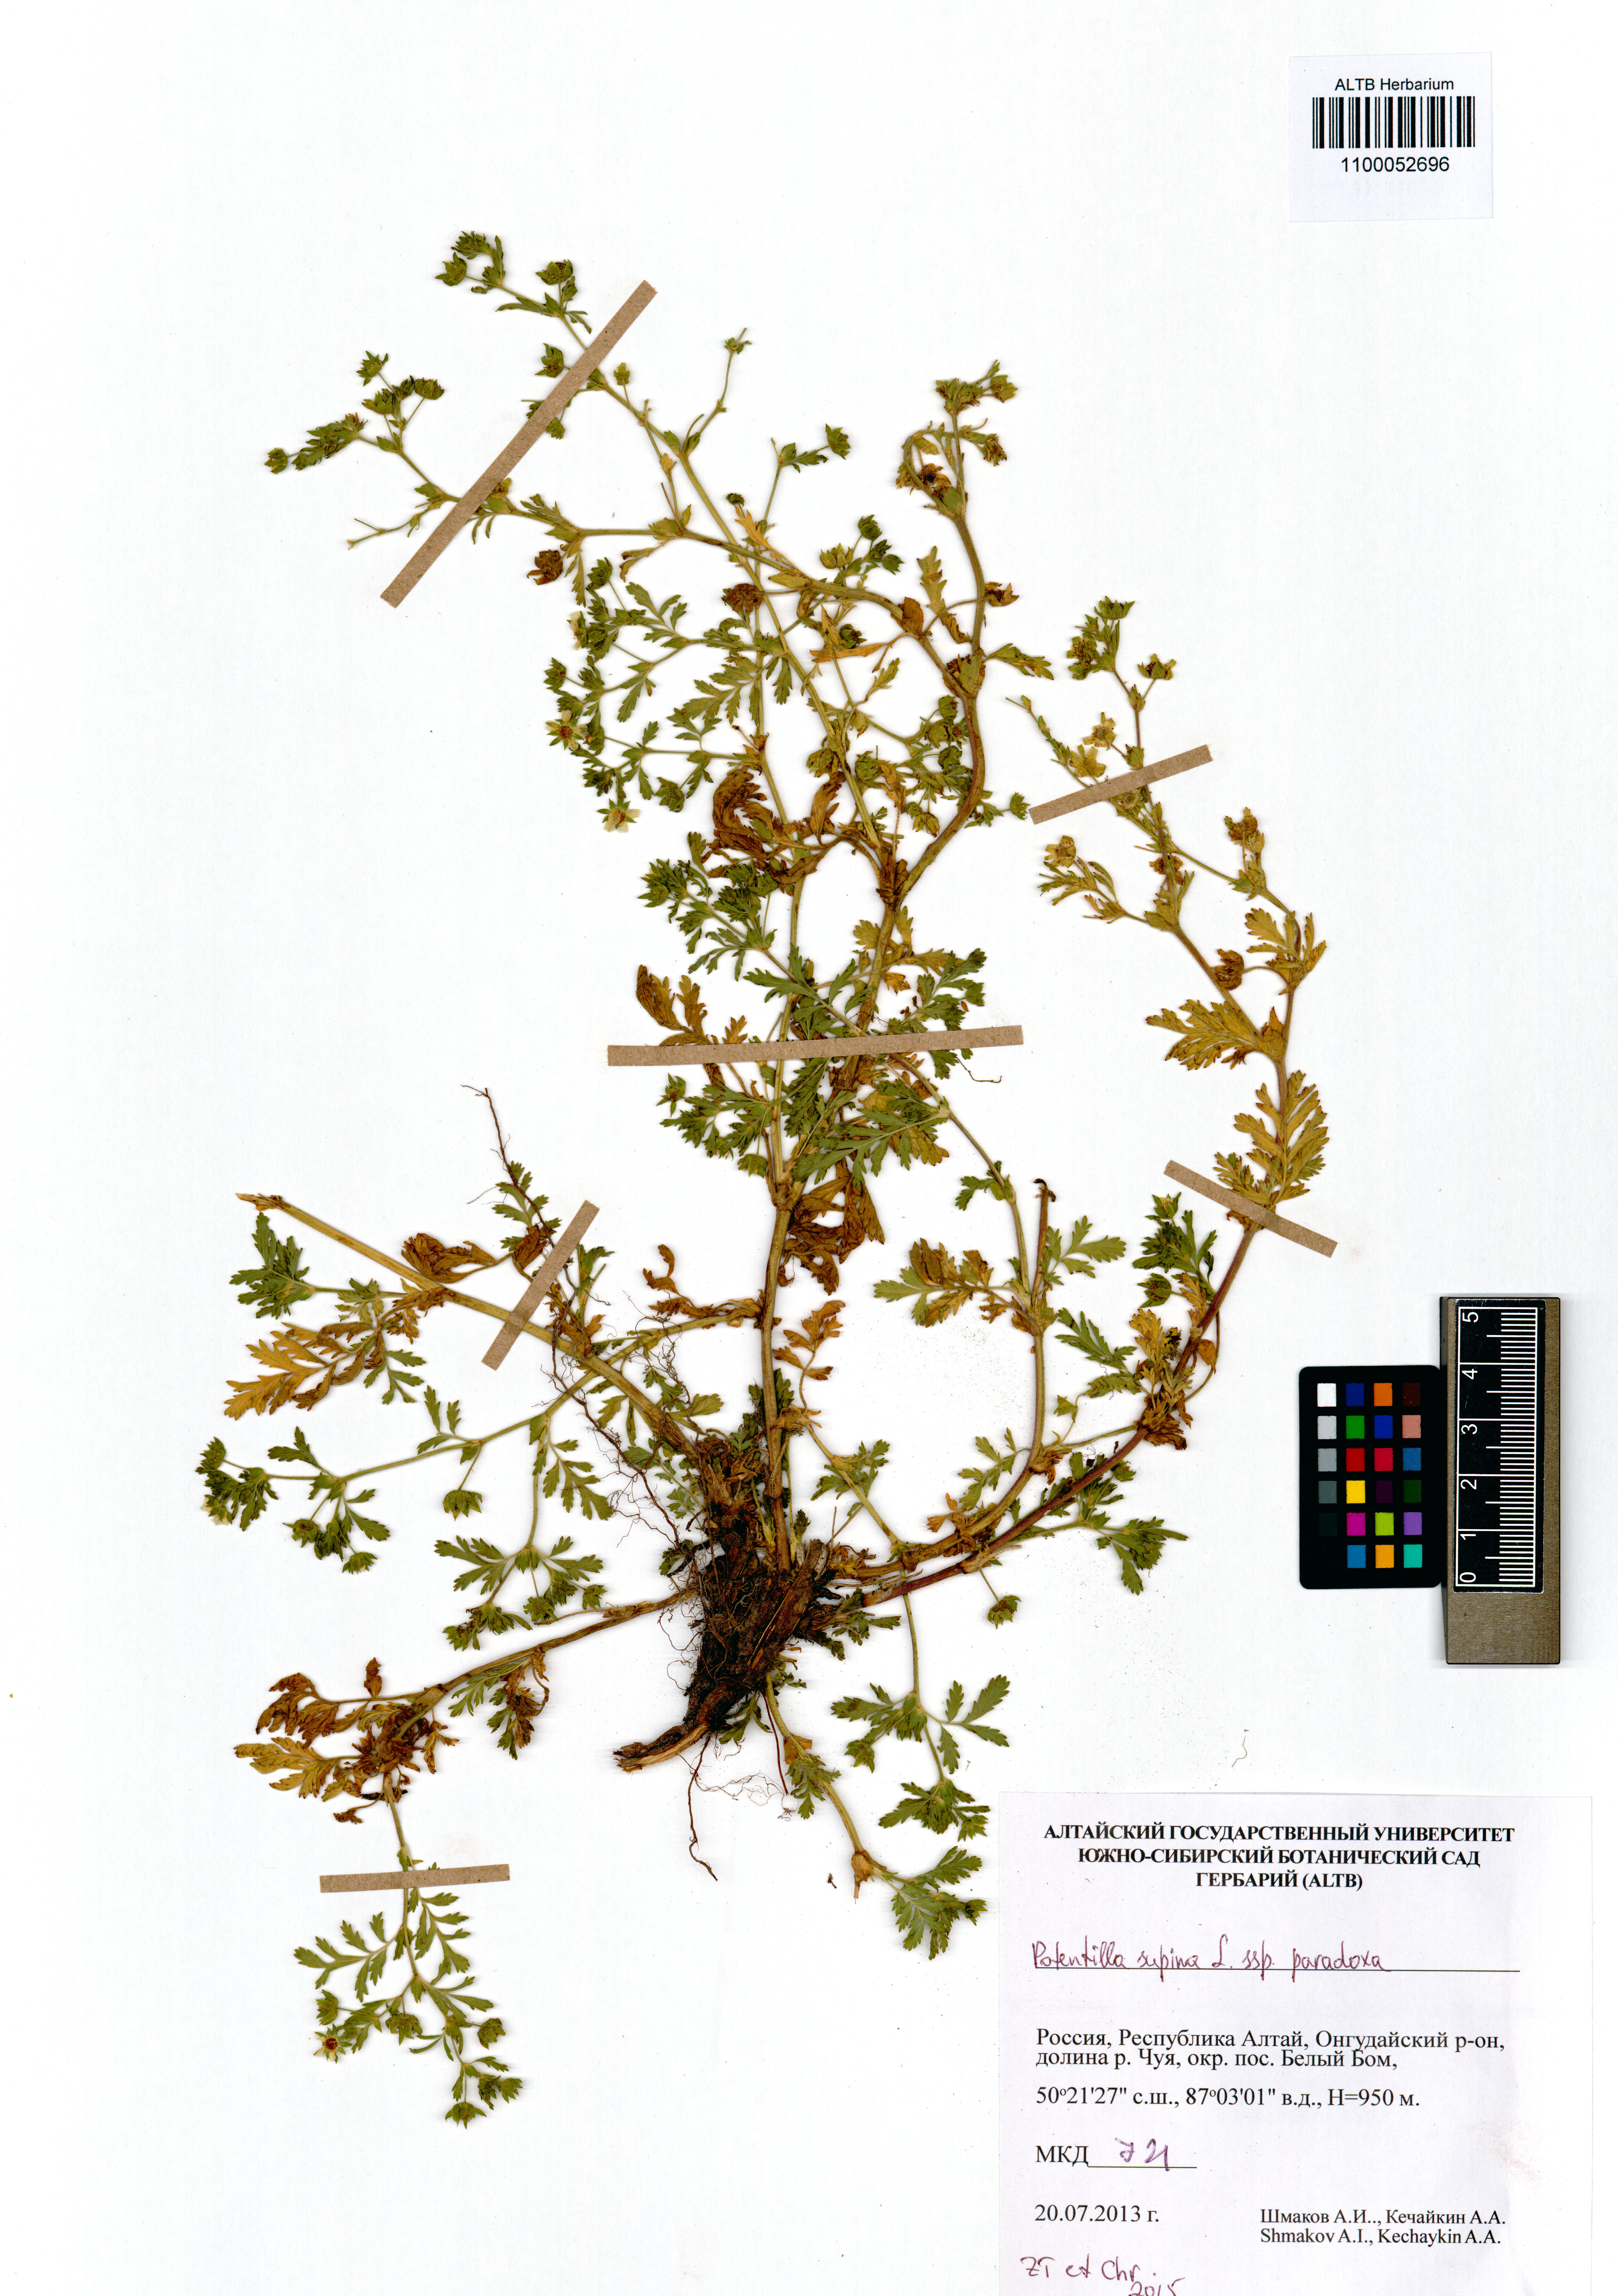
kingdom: Plantae
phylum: Tracheophyta
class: Magnoliopsida
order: Rosales
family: Rosaceae
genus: Potentilla
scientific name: Potentilla supina
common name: Prostrate cinquefoil
